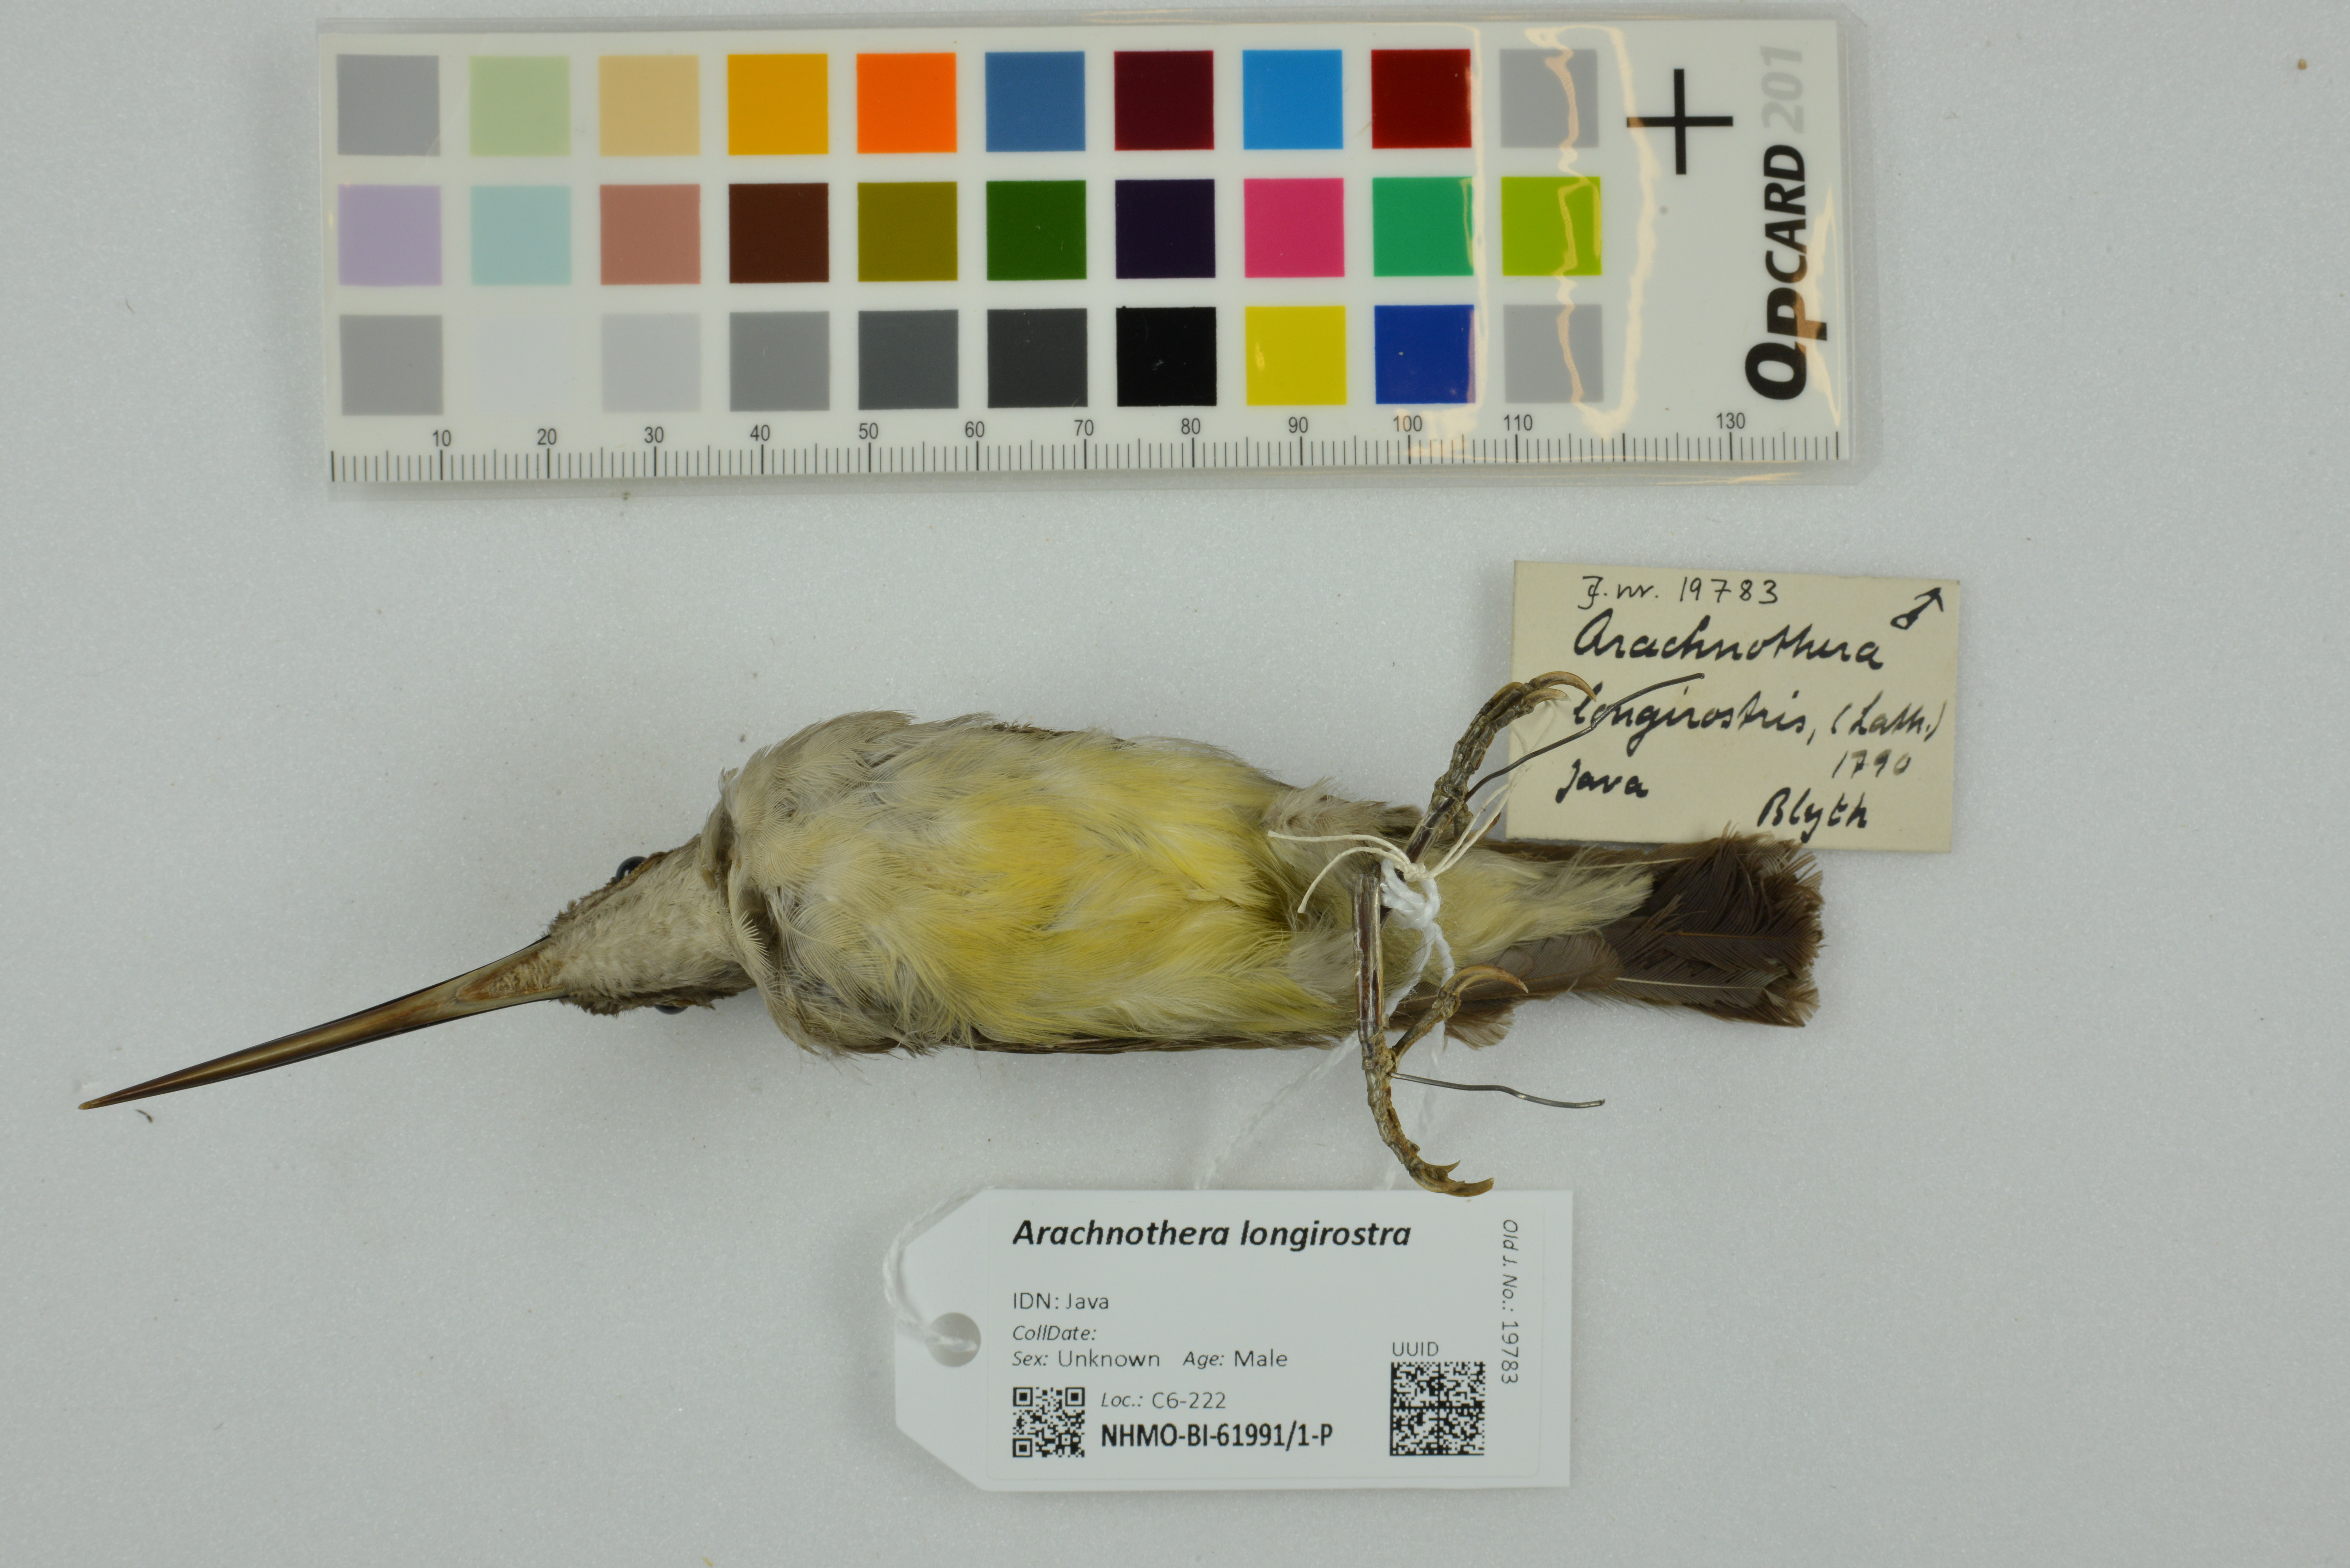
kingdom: Animalia
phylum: Chordata
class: Aves
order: Passeriformes
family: Nectariniidae
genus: Arachnothera
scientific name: Arachnothera longirostra
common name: Little spiderhunter
